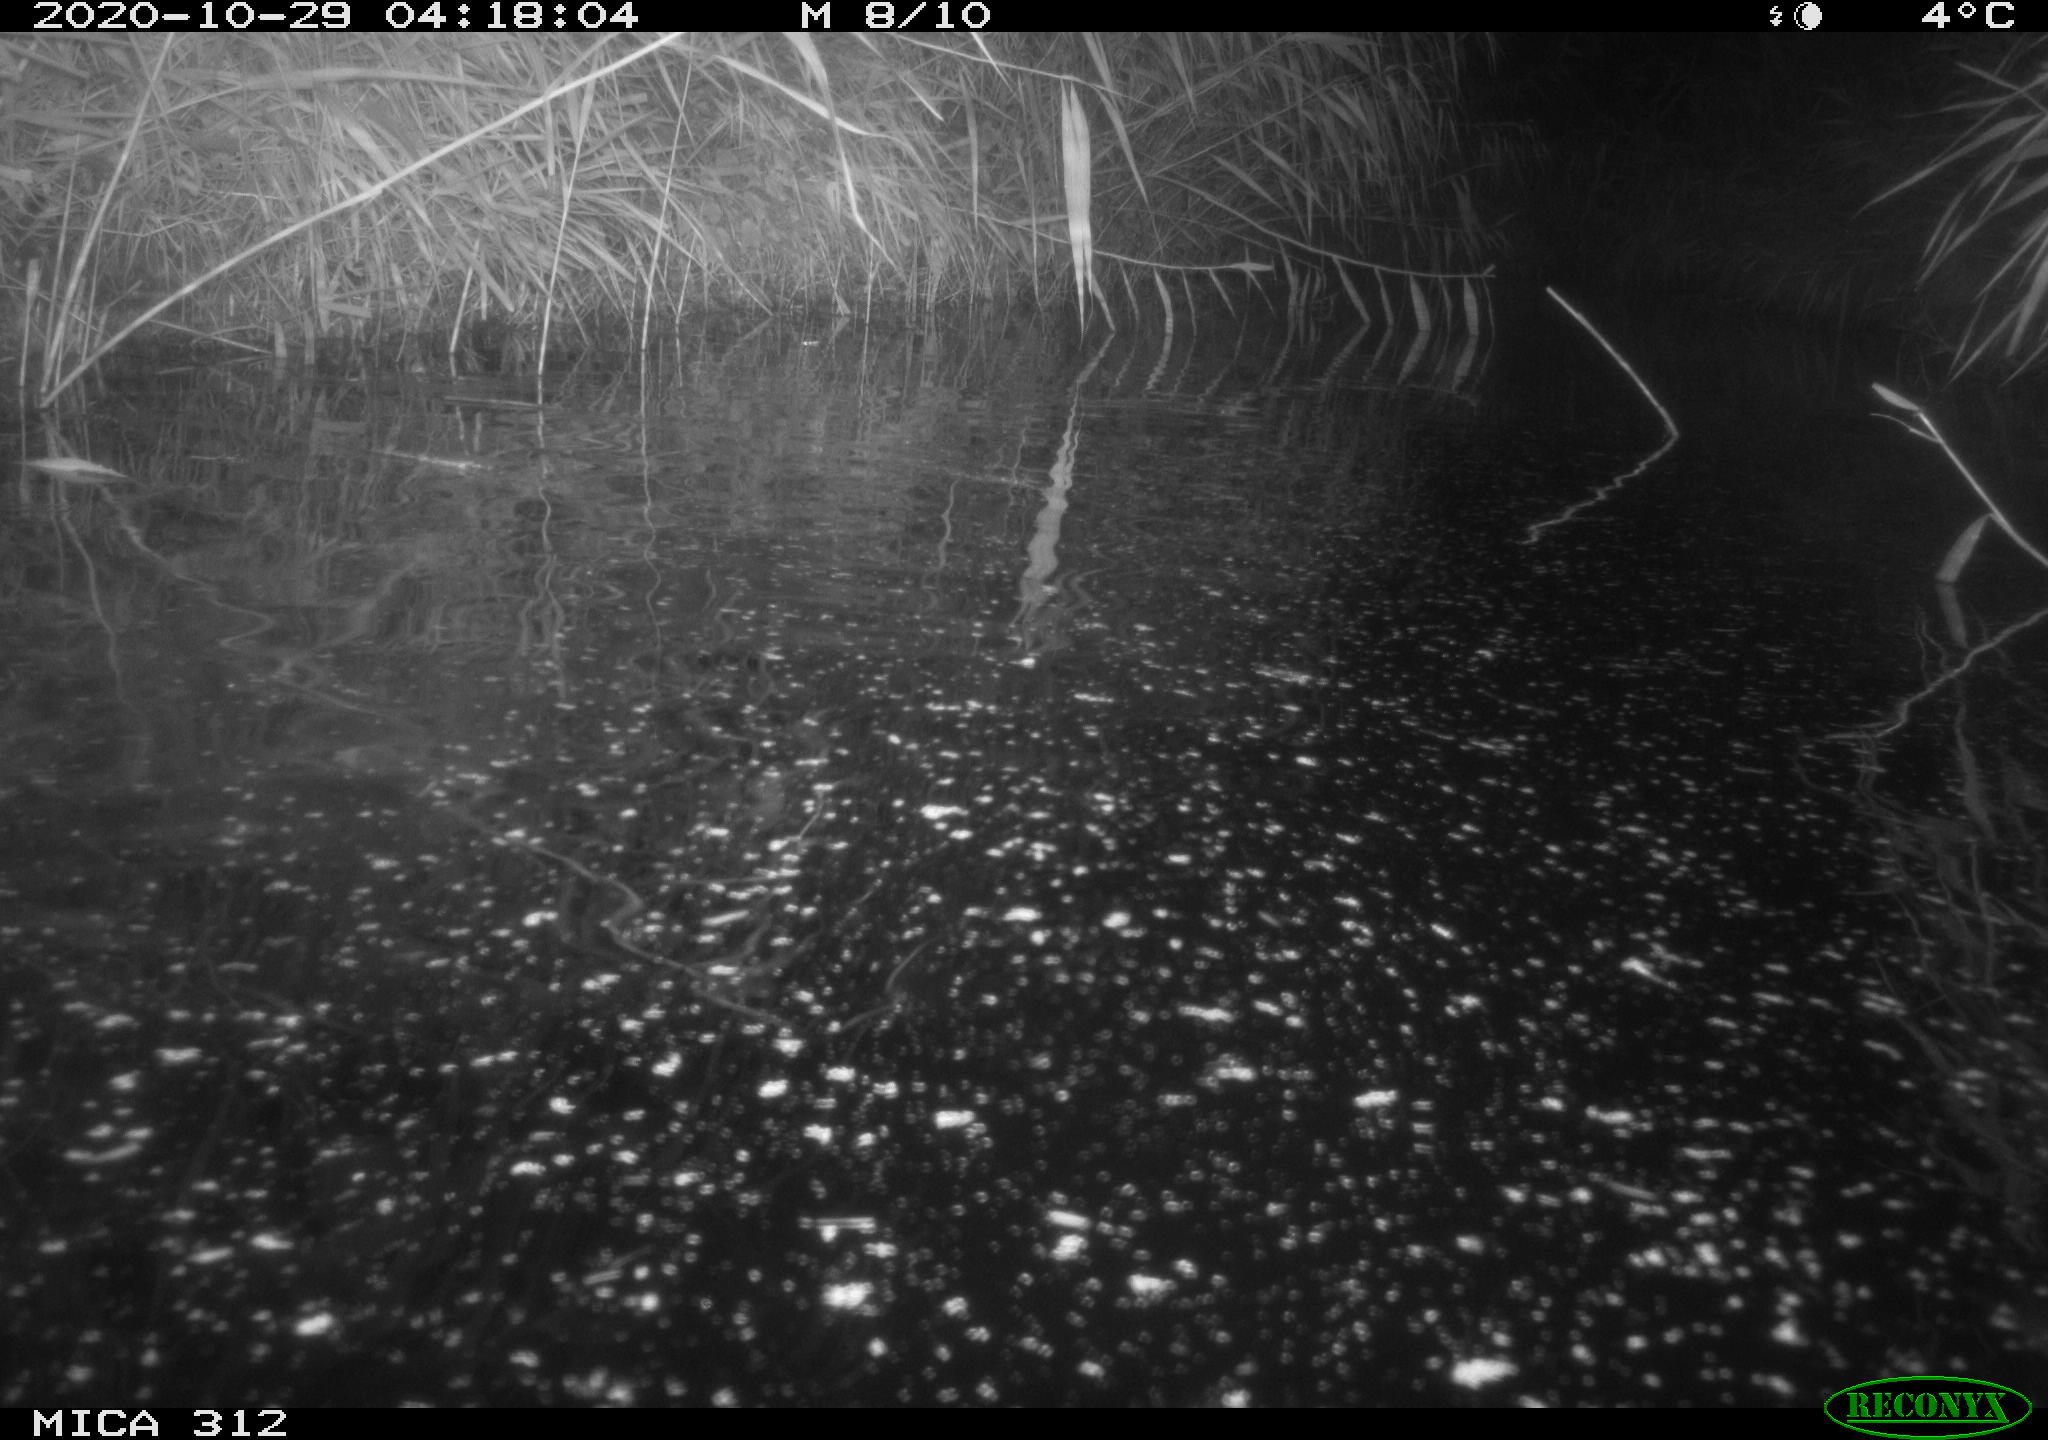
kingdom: Animalia
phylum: Chordata
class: Mammalia
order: Rodentia
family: Muridae
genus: Rattus
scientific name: Rattus norvegicus
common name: Brown rat
